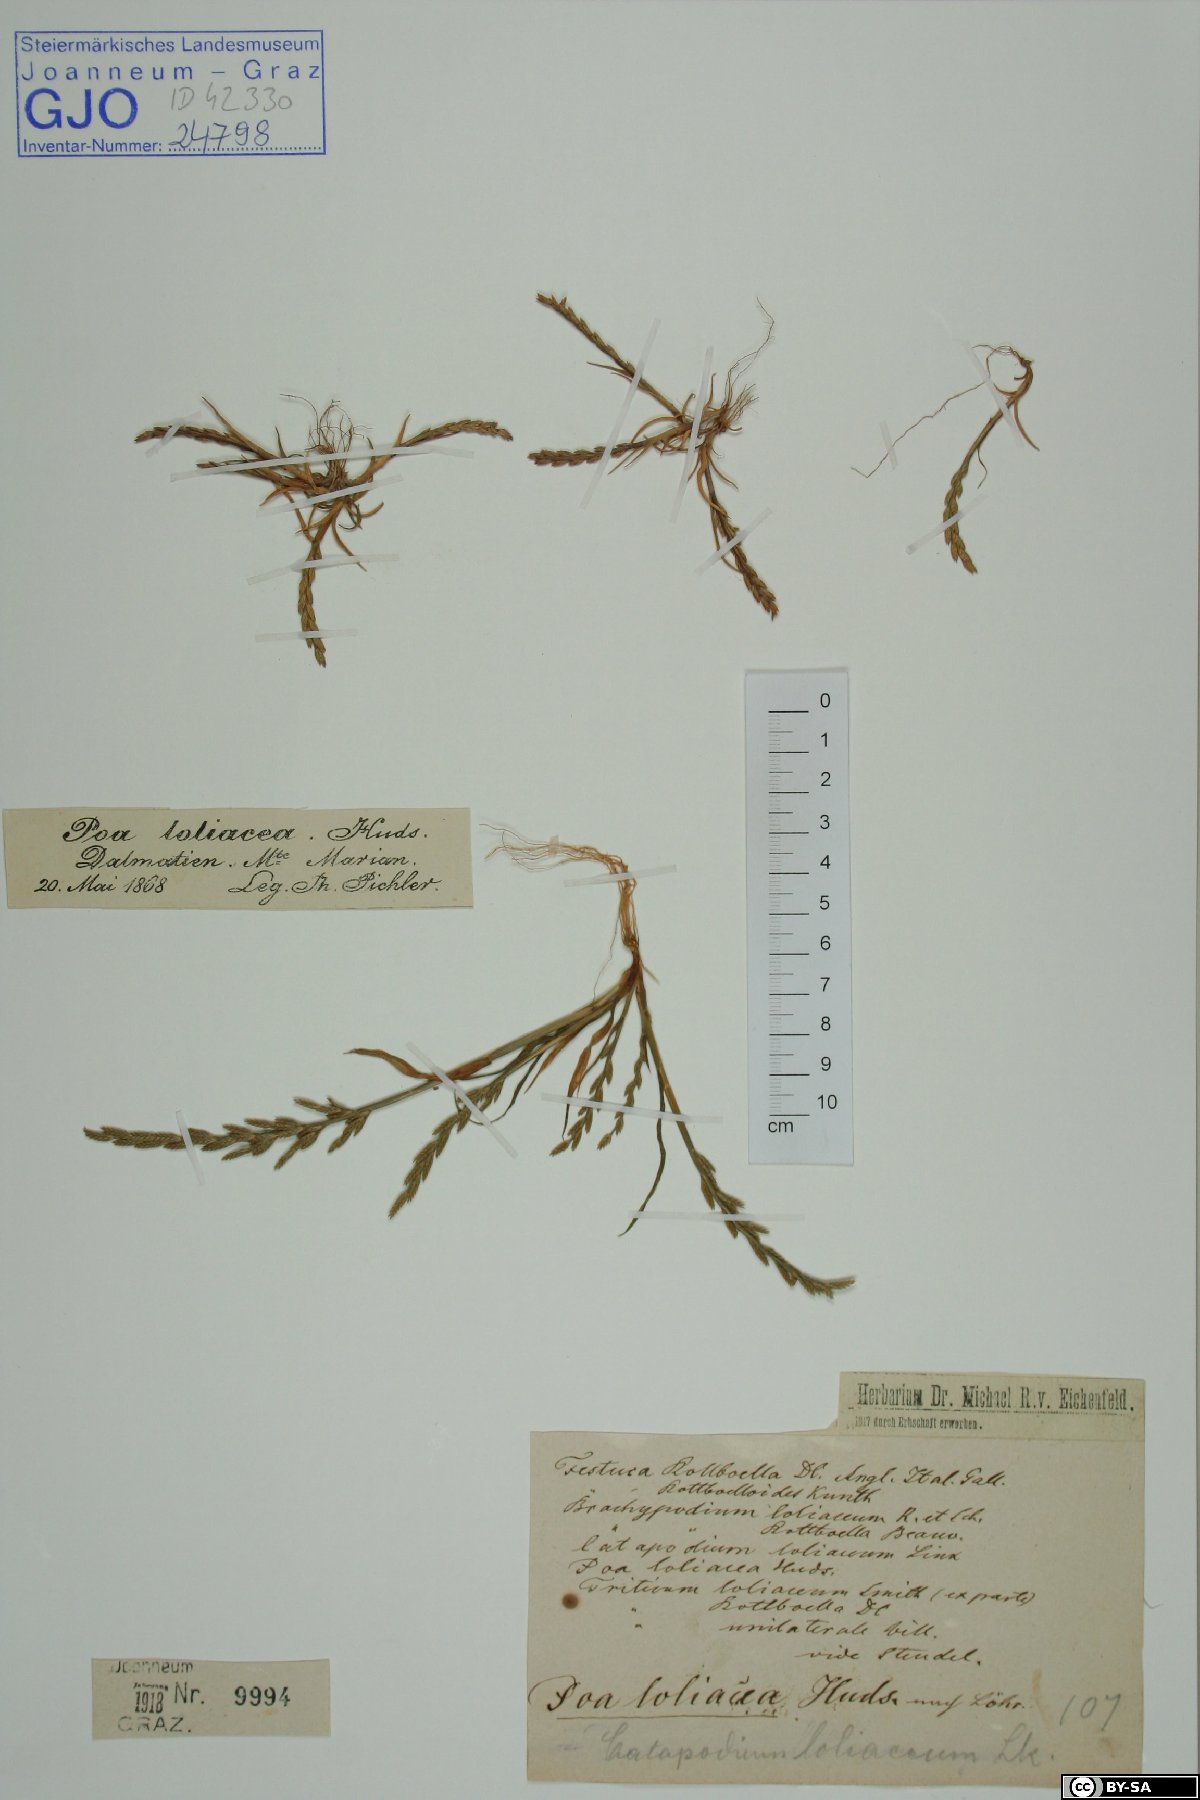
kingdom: Plantae
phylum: Tracheophyta
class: Liliopsida
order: Poales
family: Poaceae
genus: Catapodium
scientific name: Catapodium marinum
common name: Sea fern-grass
